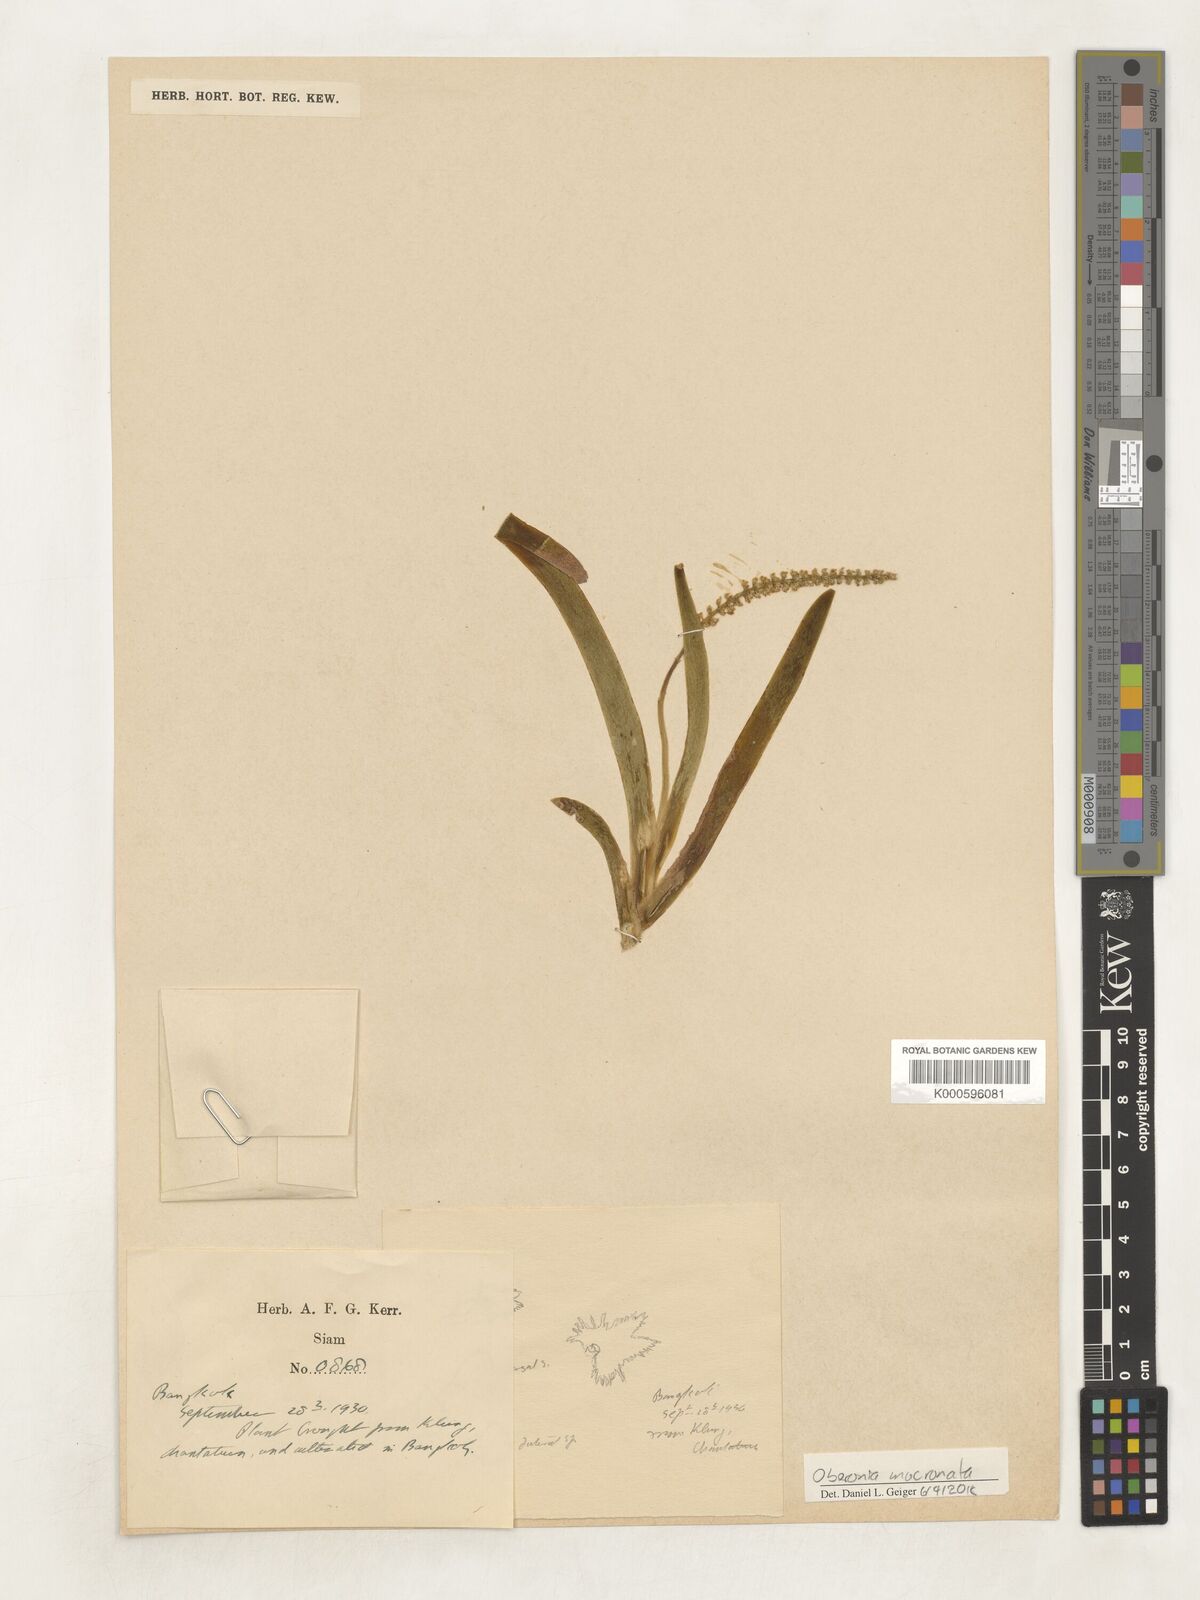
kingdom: Plantae
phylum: Tracheophyta
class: Liliopsida
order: Asparagales
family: Orchidaceae
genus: Oberonia
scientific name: Oberonia mucronata
